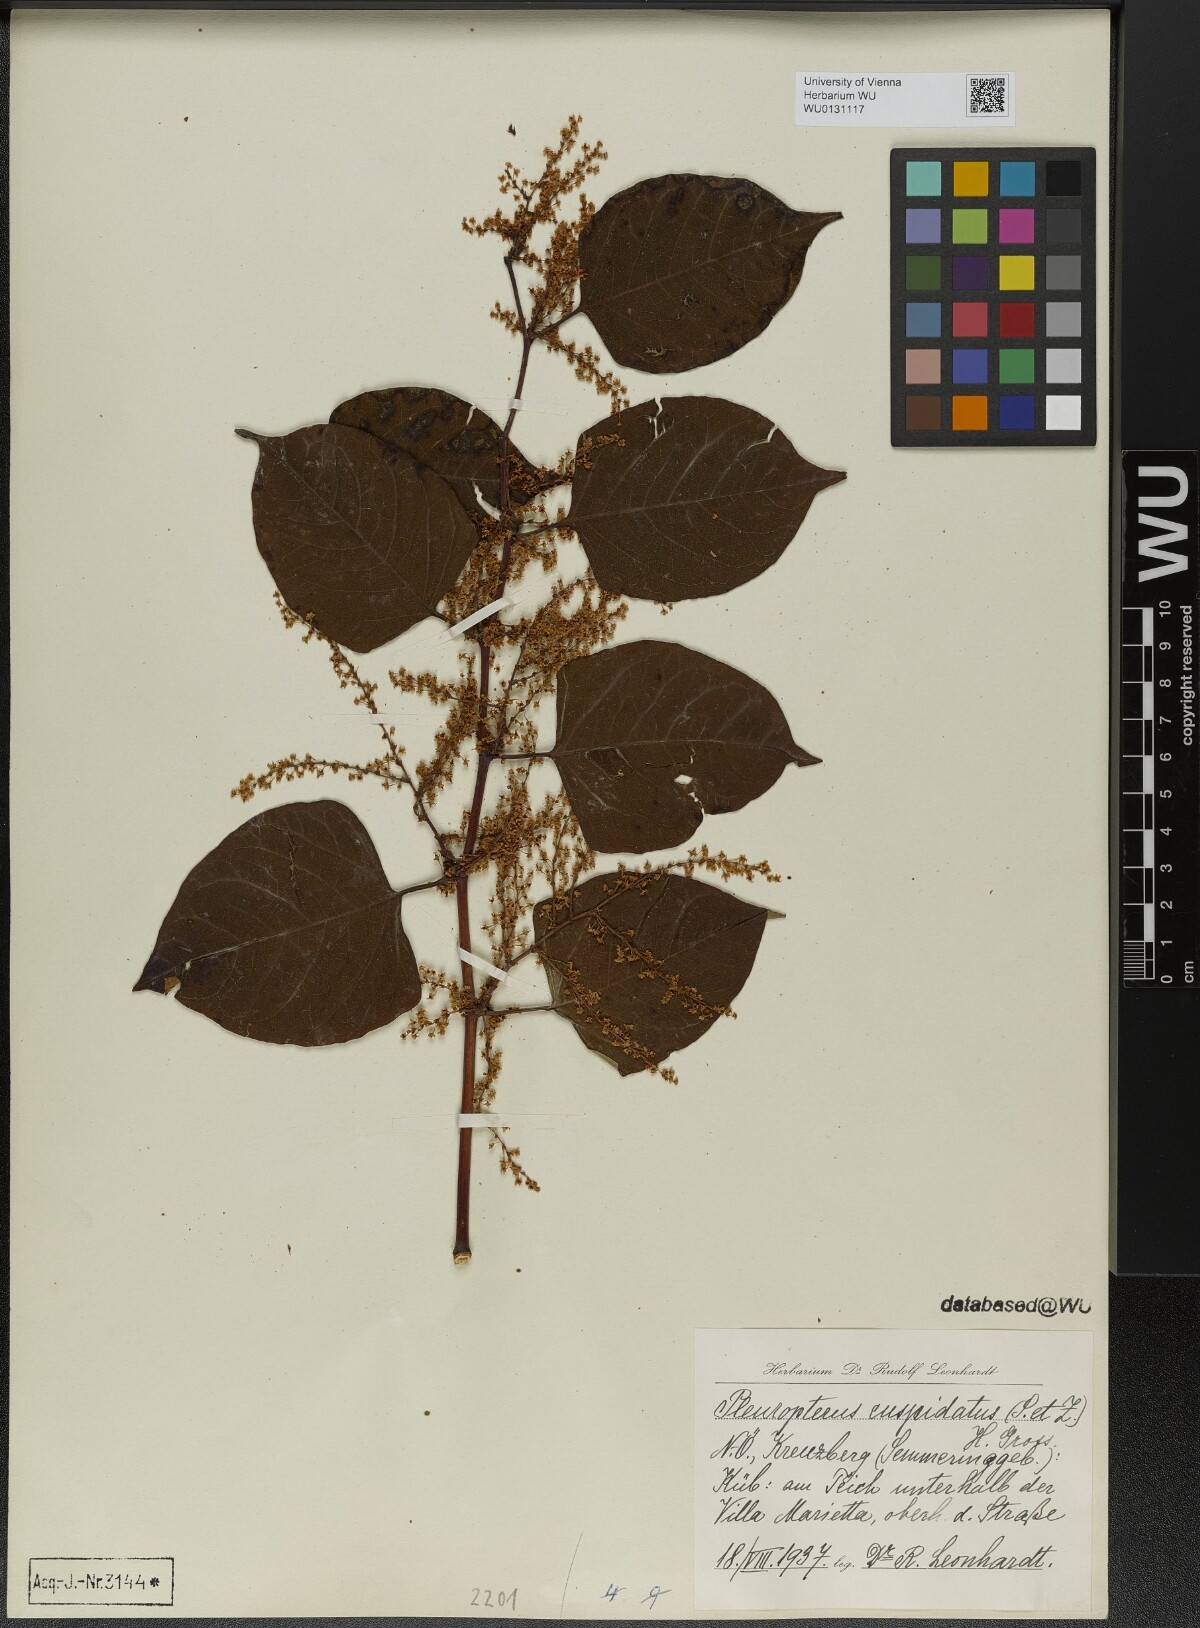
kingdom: Plantae
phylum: Tracheophyta
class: Magnoliopsida
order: Caryophyllales
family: Polygonaceae
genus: Reynoutria
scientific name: Reynoutria japonica
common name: Japanese knotweed
